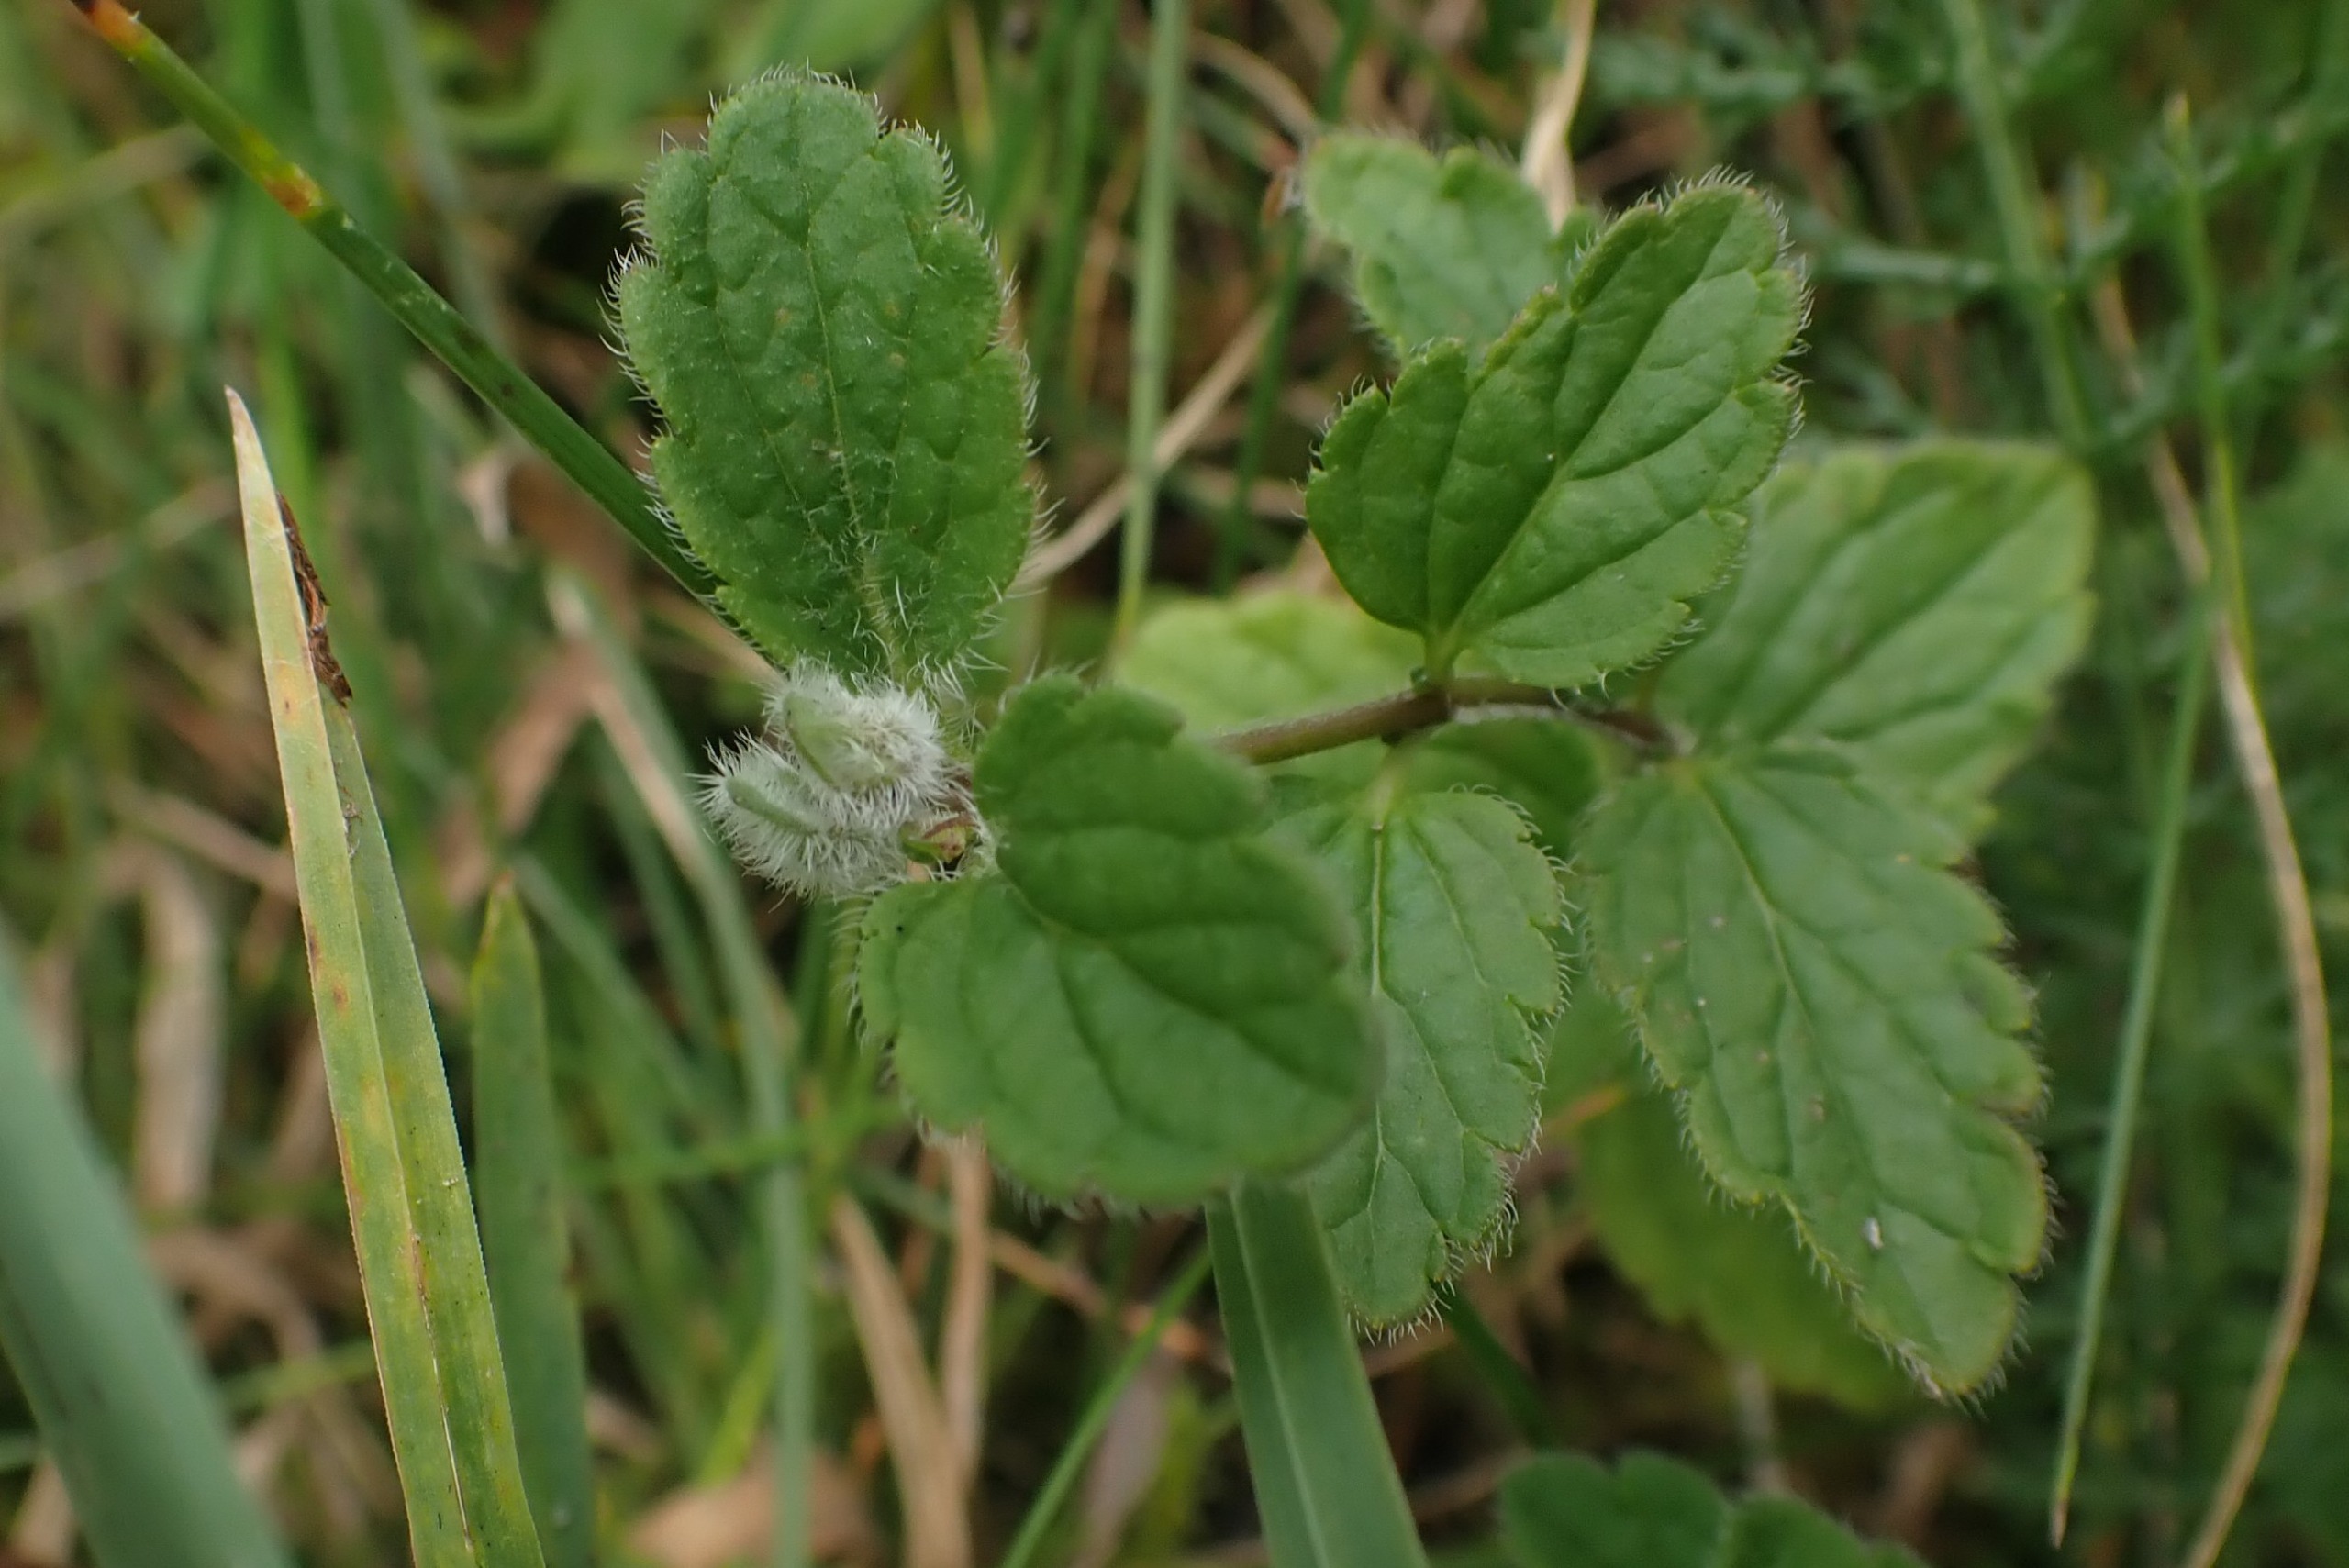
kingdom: Animalia
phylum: Arthropoda
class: Insecta
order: Diptera
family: Cecidomyiidae
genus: Jaapiella
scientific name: Jaapiella veronicae
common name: Ærenprisgalmyg
